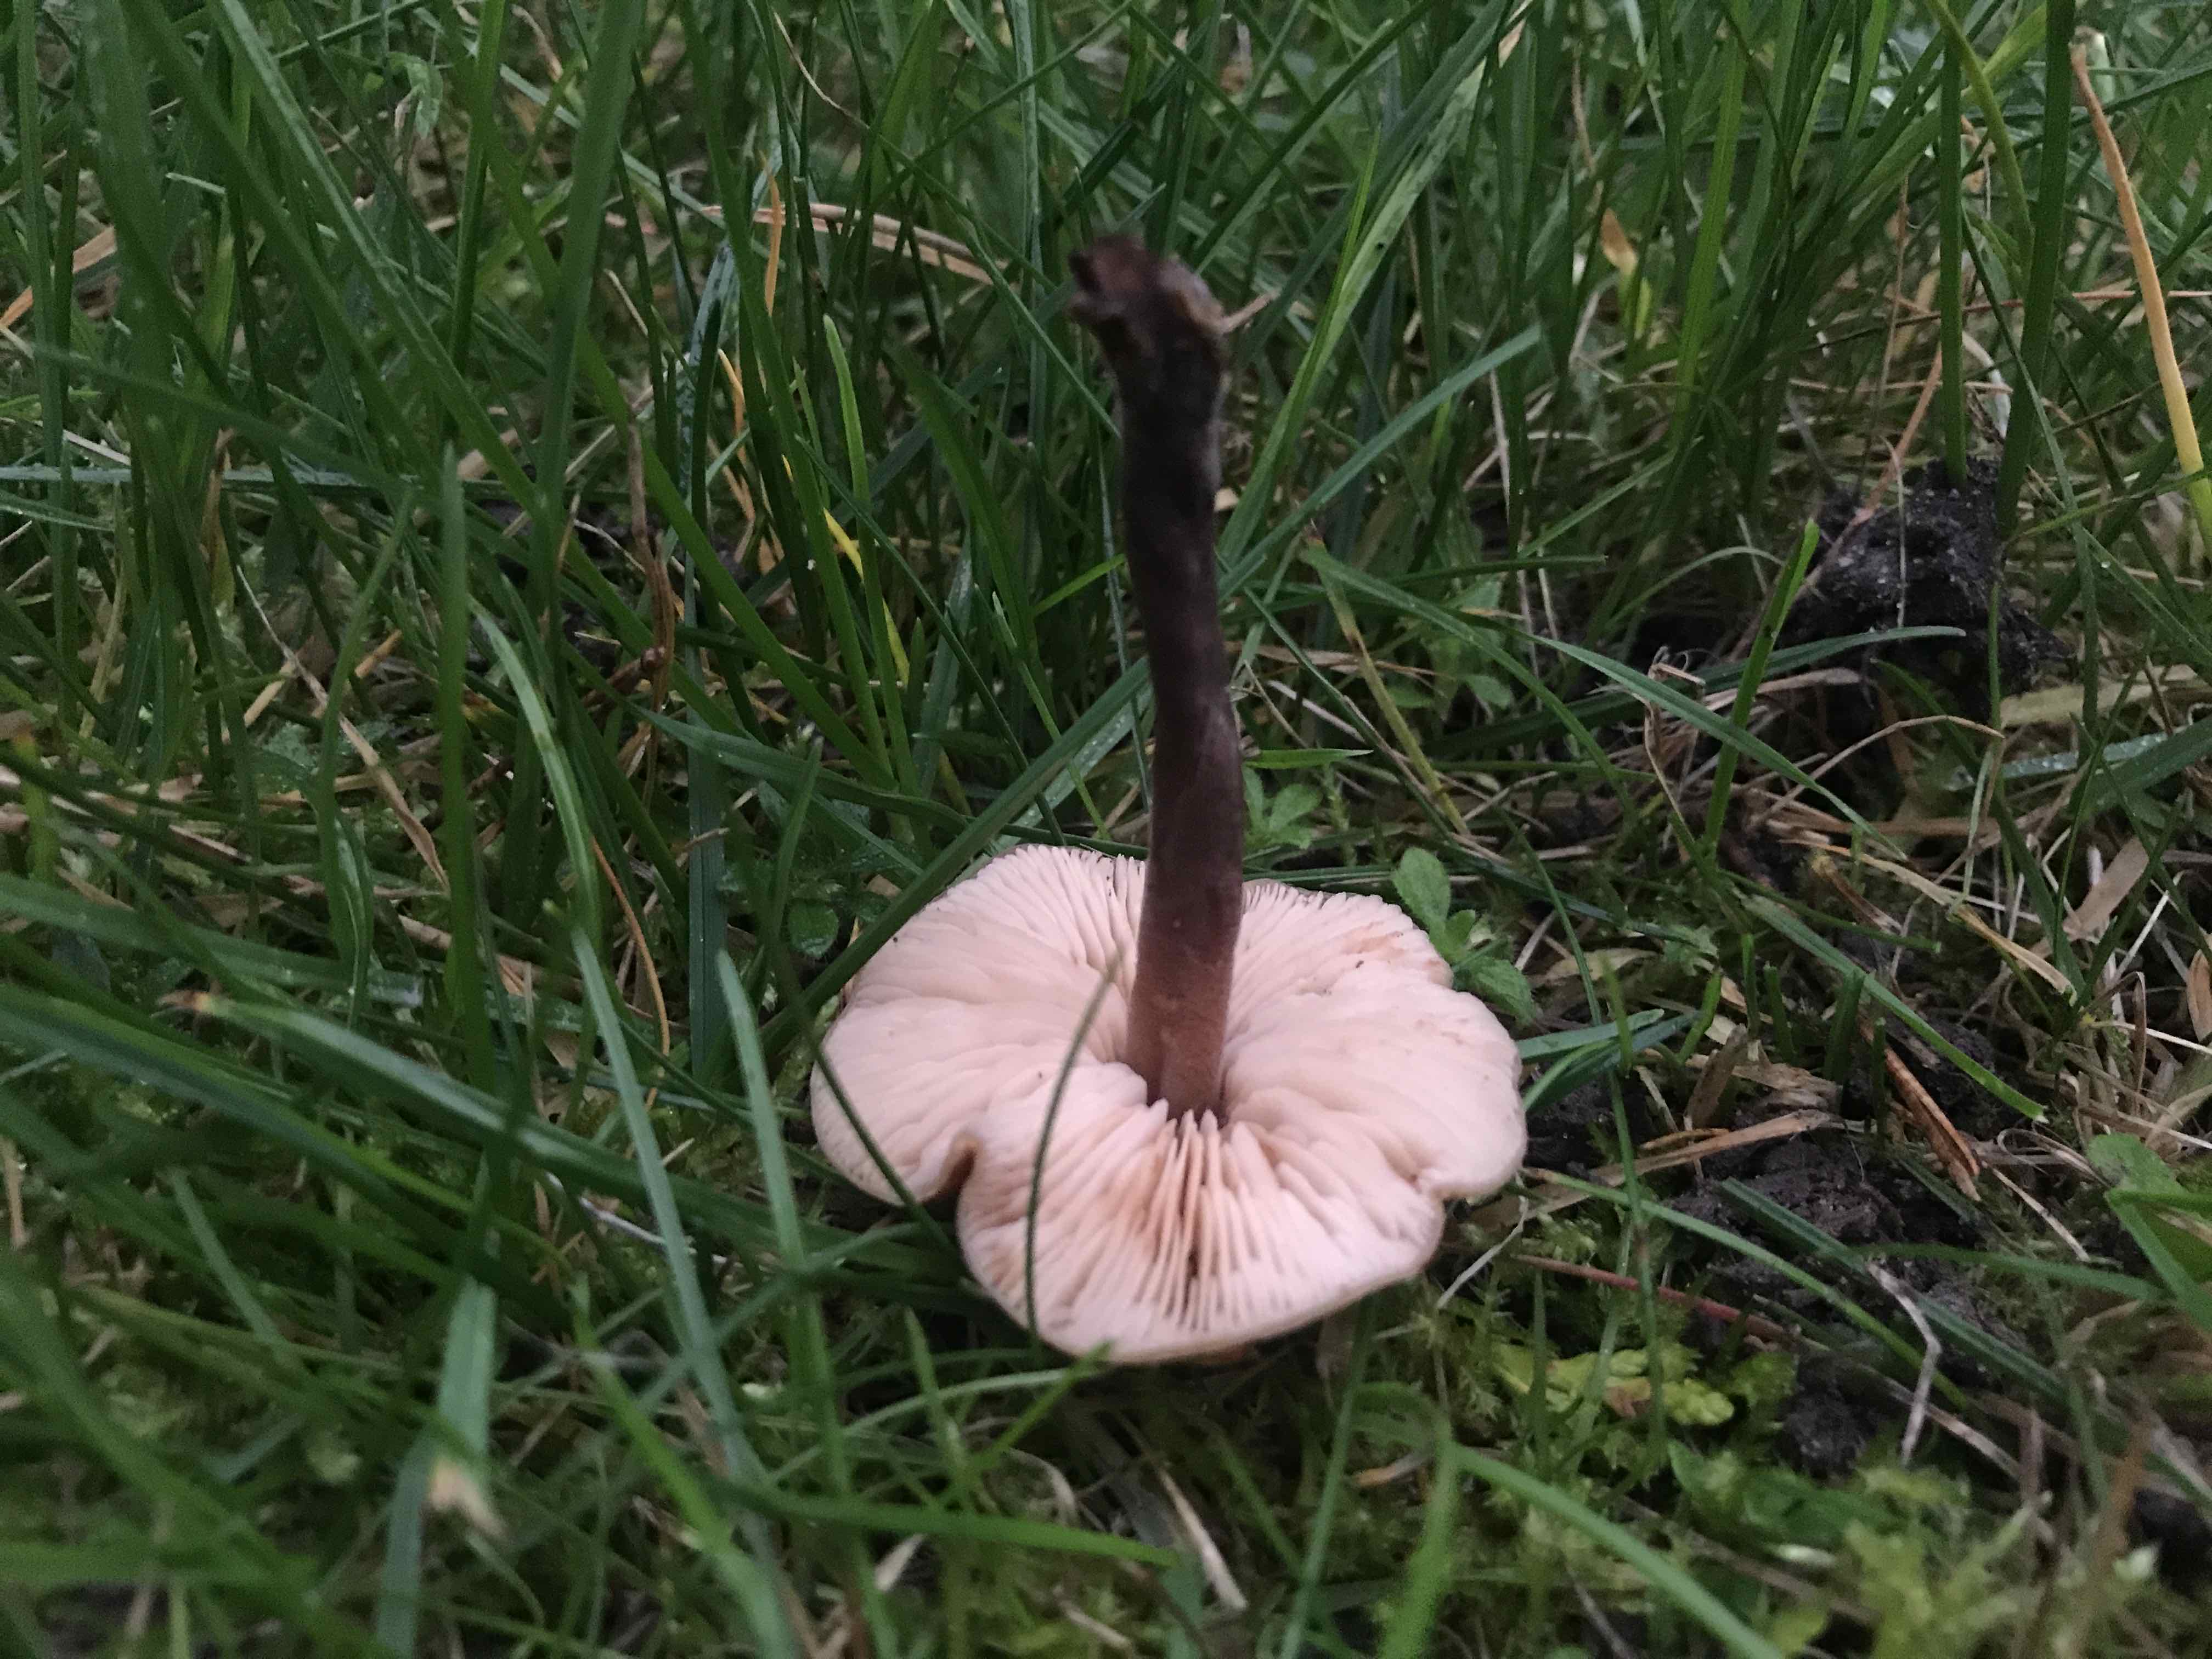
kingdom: Fungi
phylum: Basidiomycota
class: Agaricomycetes
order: Agaricales
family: Macrocystidiaceae
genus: Macrocystidia
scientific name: Macrocystidia cucumis
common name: agurkehat
